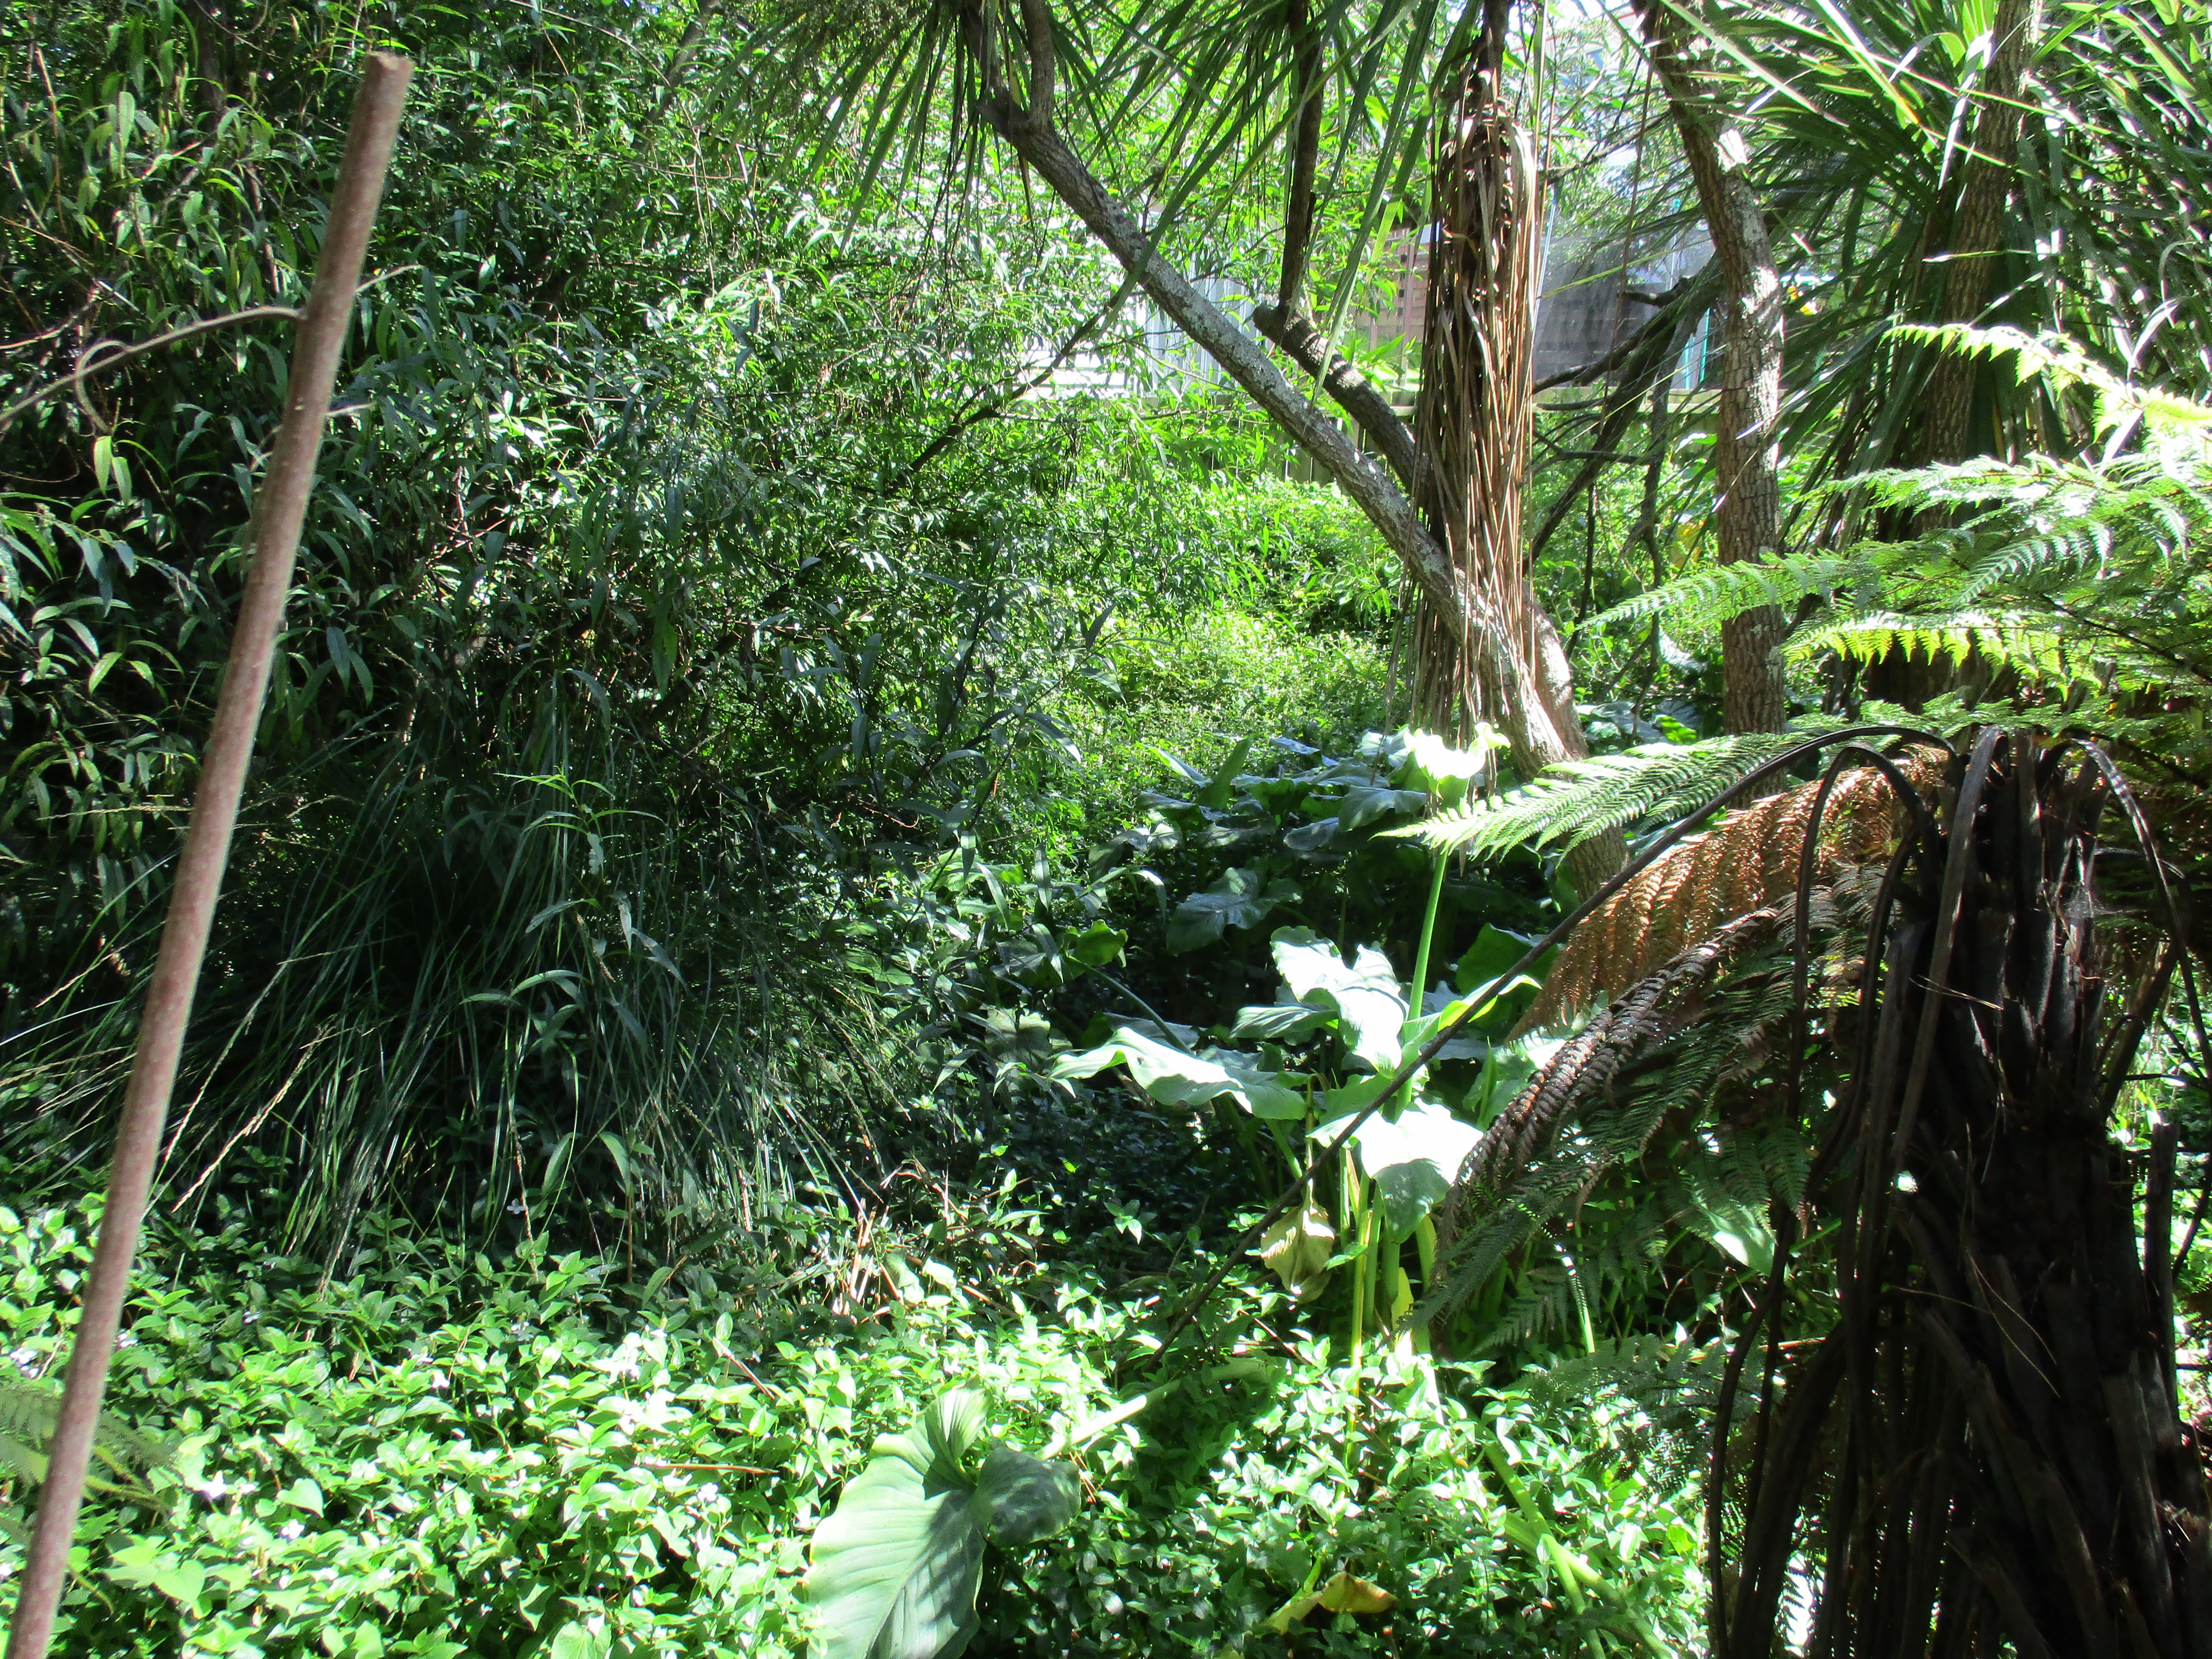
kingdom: Plantae
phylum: Tracheophyta
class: Magnoliopsida
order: Piperales
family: Saururaceae
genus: Houttuynia
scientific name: Houttuynia cordata
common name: Chameleon
